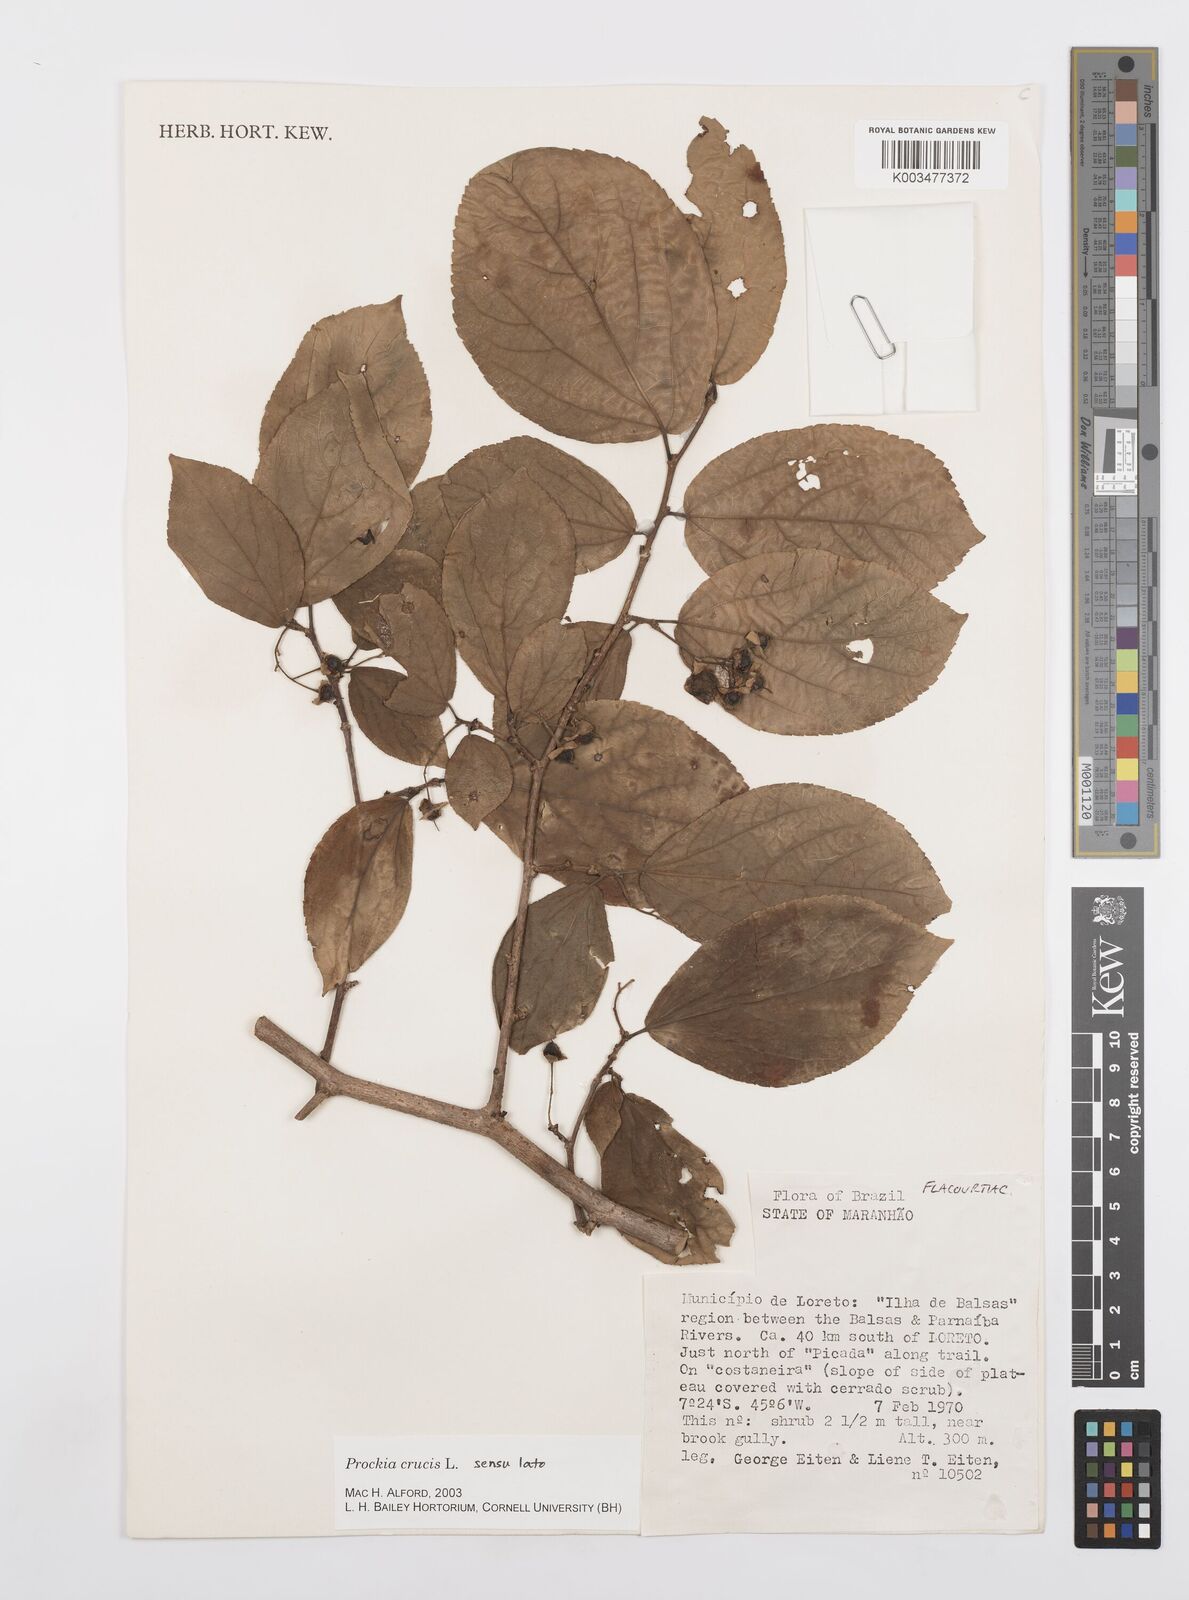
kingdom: Plantae
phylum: Tracheophyta
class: Magnoliopsida
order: Malpighiales
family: Salicaceae
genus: Prockia
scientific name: Prockia crucis
